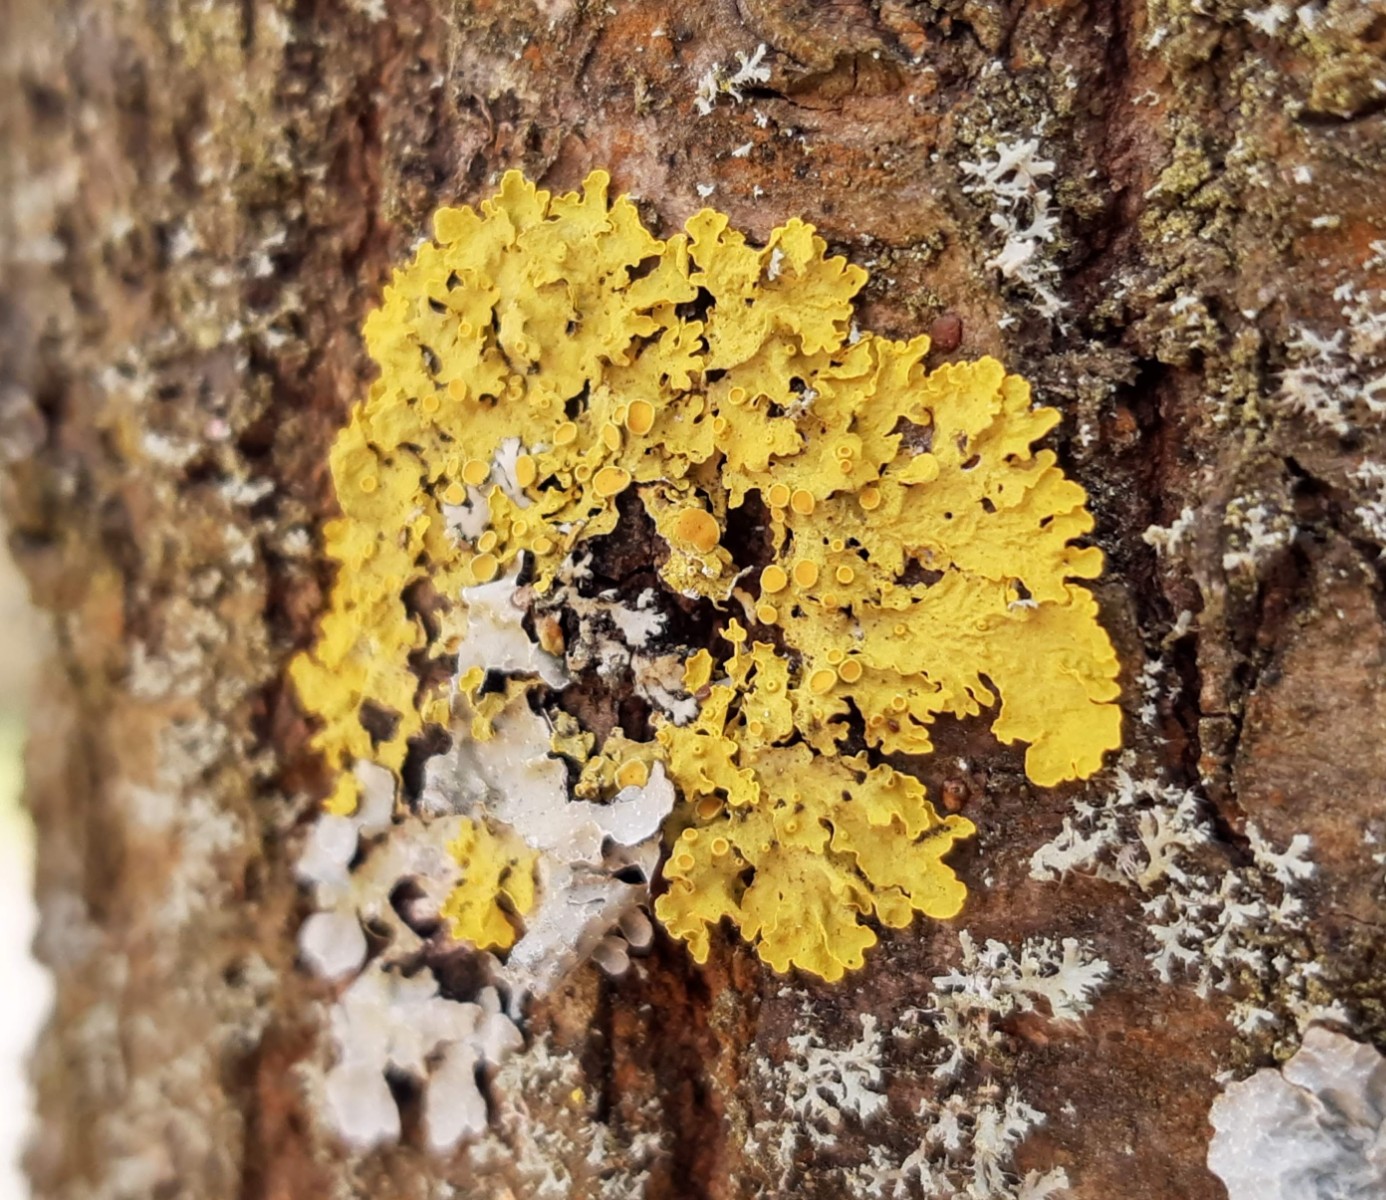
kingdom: Fungi
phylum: Ascomycota
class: Lecanoromycetes
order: Teloschistales
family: Teloschistaceae
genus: Xanthoria
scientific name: Xanthoria parietina
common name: almindelig væggelav
